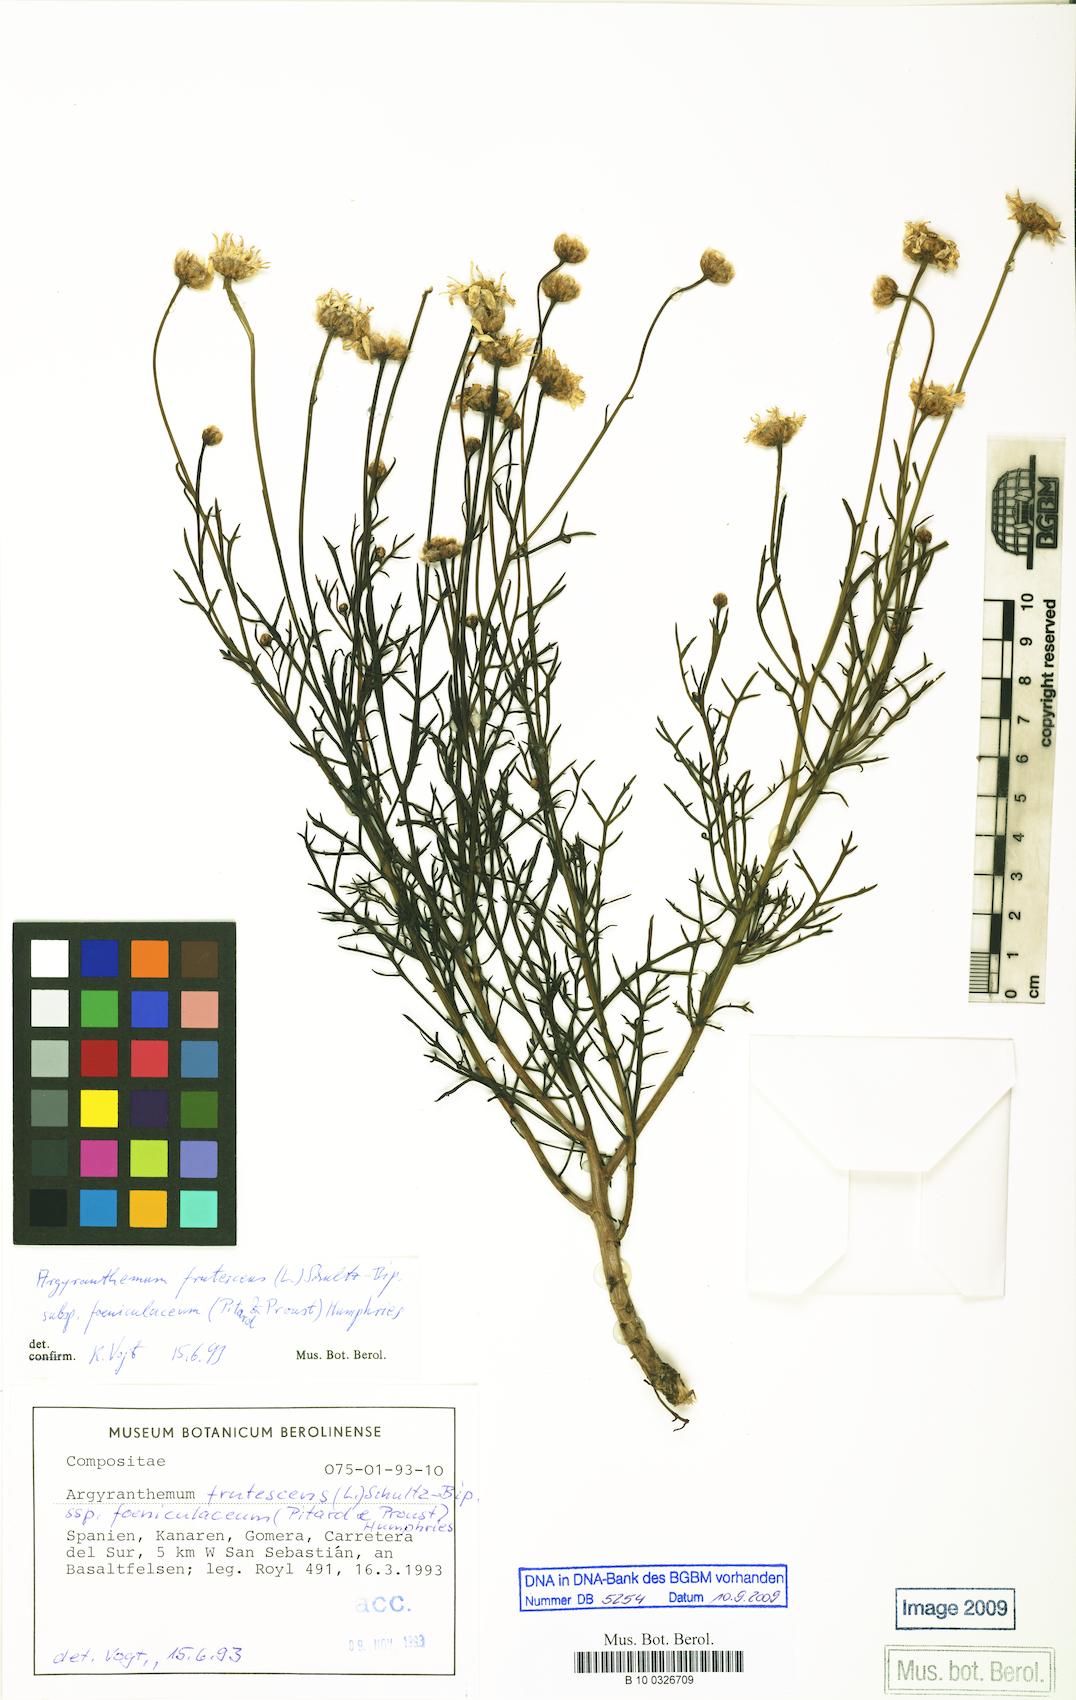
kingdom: Plantae
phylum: Tracheophyta
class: Magnoliopsida
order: Asterales
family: Asteraceae
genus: Argyranthemum
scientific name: Argyranthemum frutescens
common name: Paris daisy
